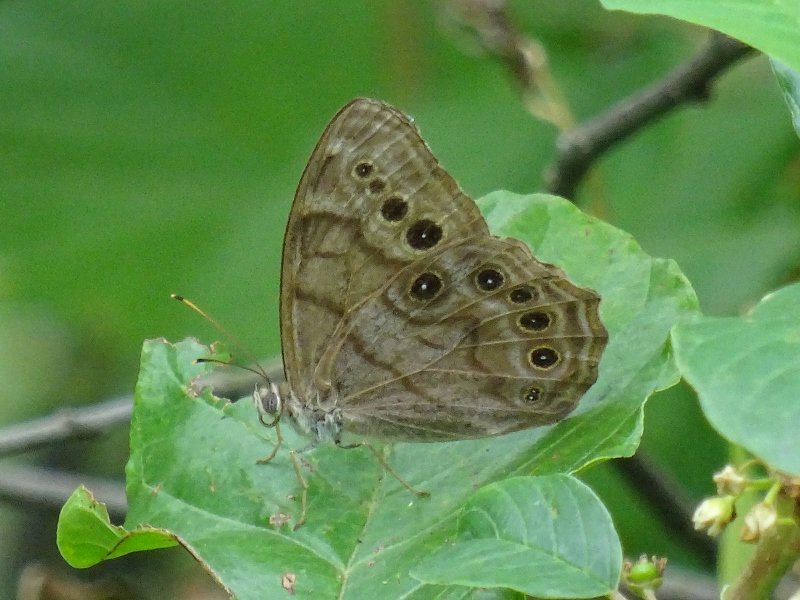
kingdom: Animalia
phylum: Arthropoda
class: Insecta
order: Lepidoptera
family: Nymphalidae
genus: Lethe
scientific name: Lethe anthedon
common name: Northern Pearly-Eye
